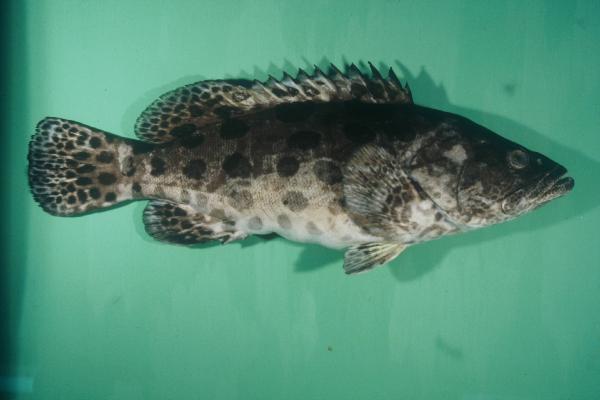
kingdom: Animalia
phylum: Chordata
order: Perciformes
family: Serranidae
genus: Epinephelus
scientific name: Epinephelus tukula
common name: Potato cod
